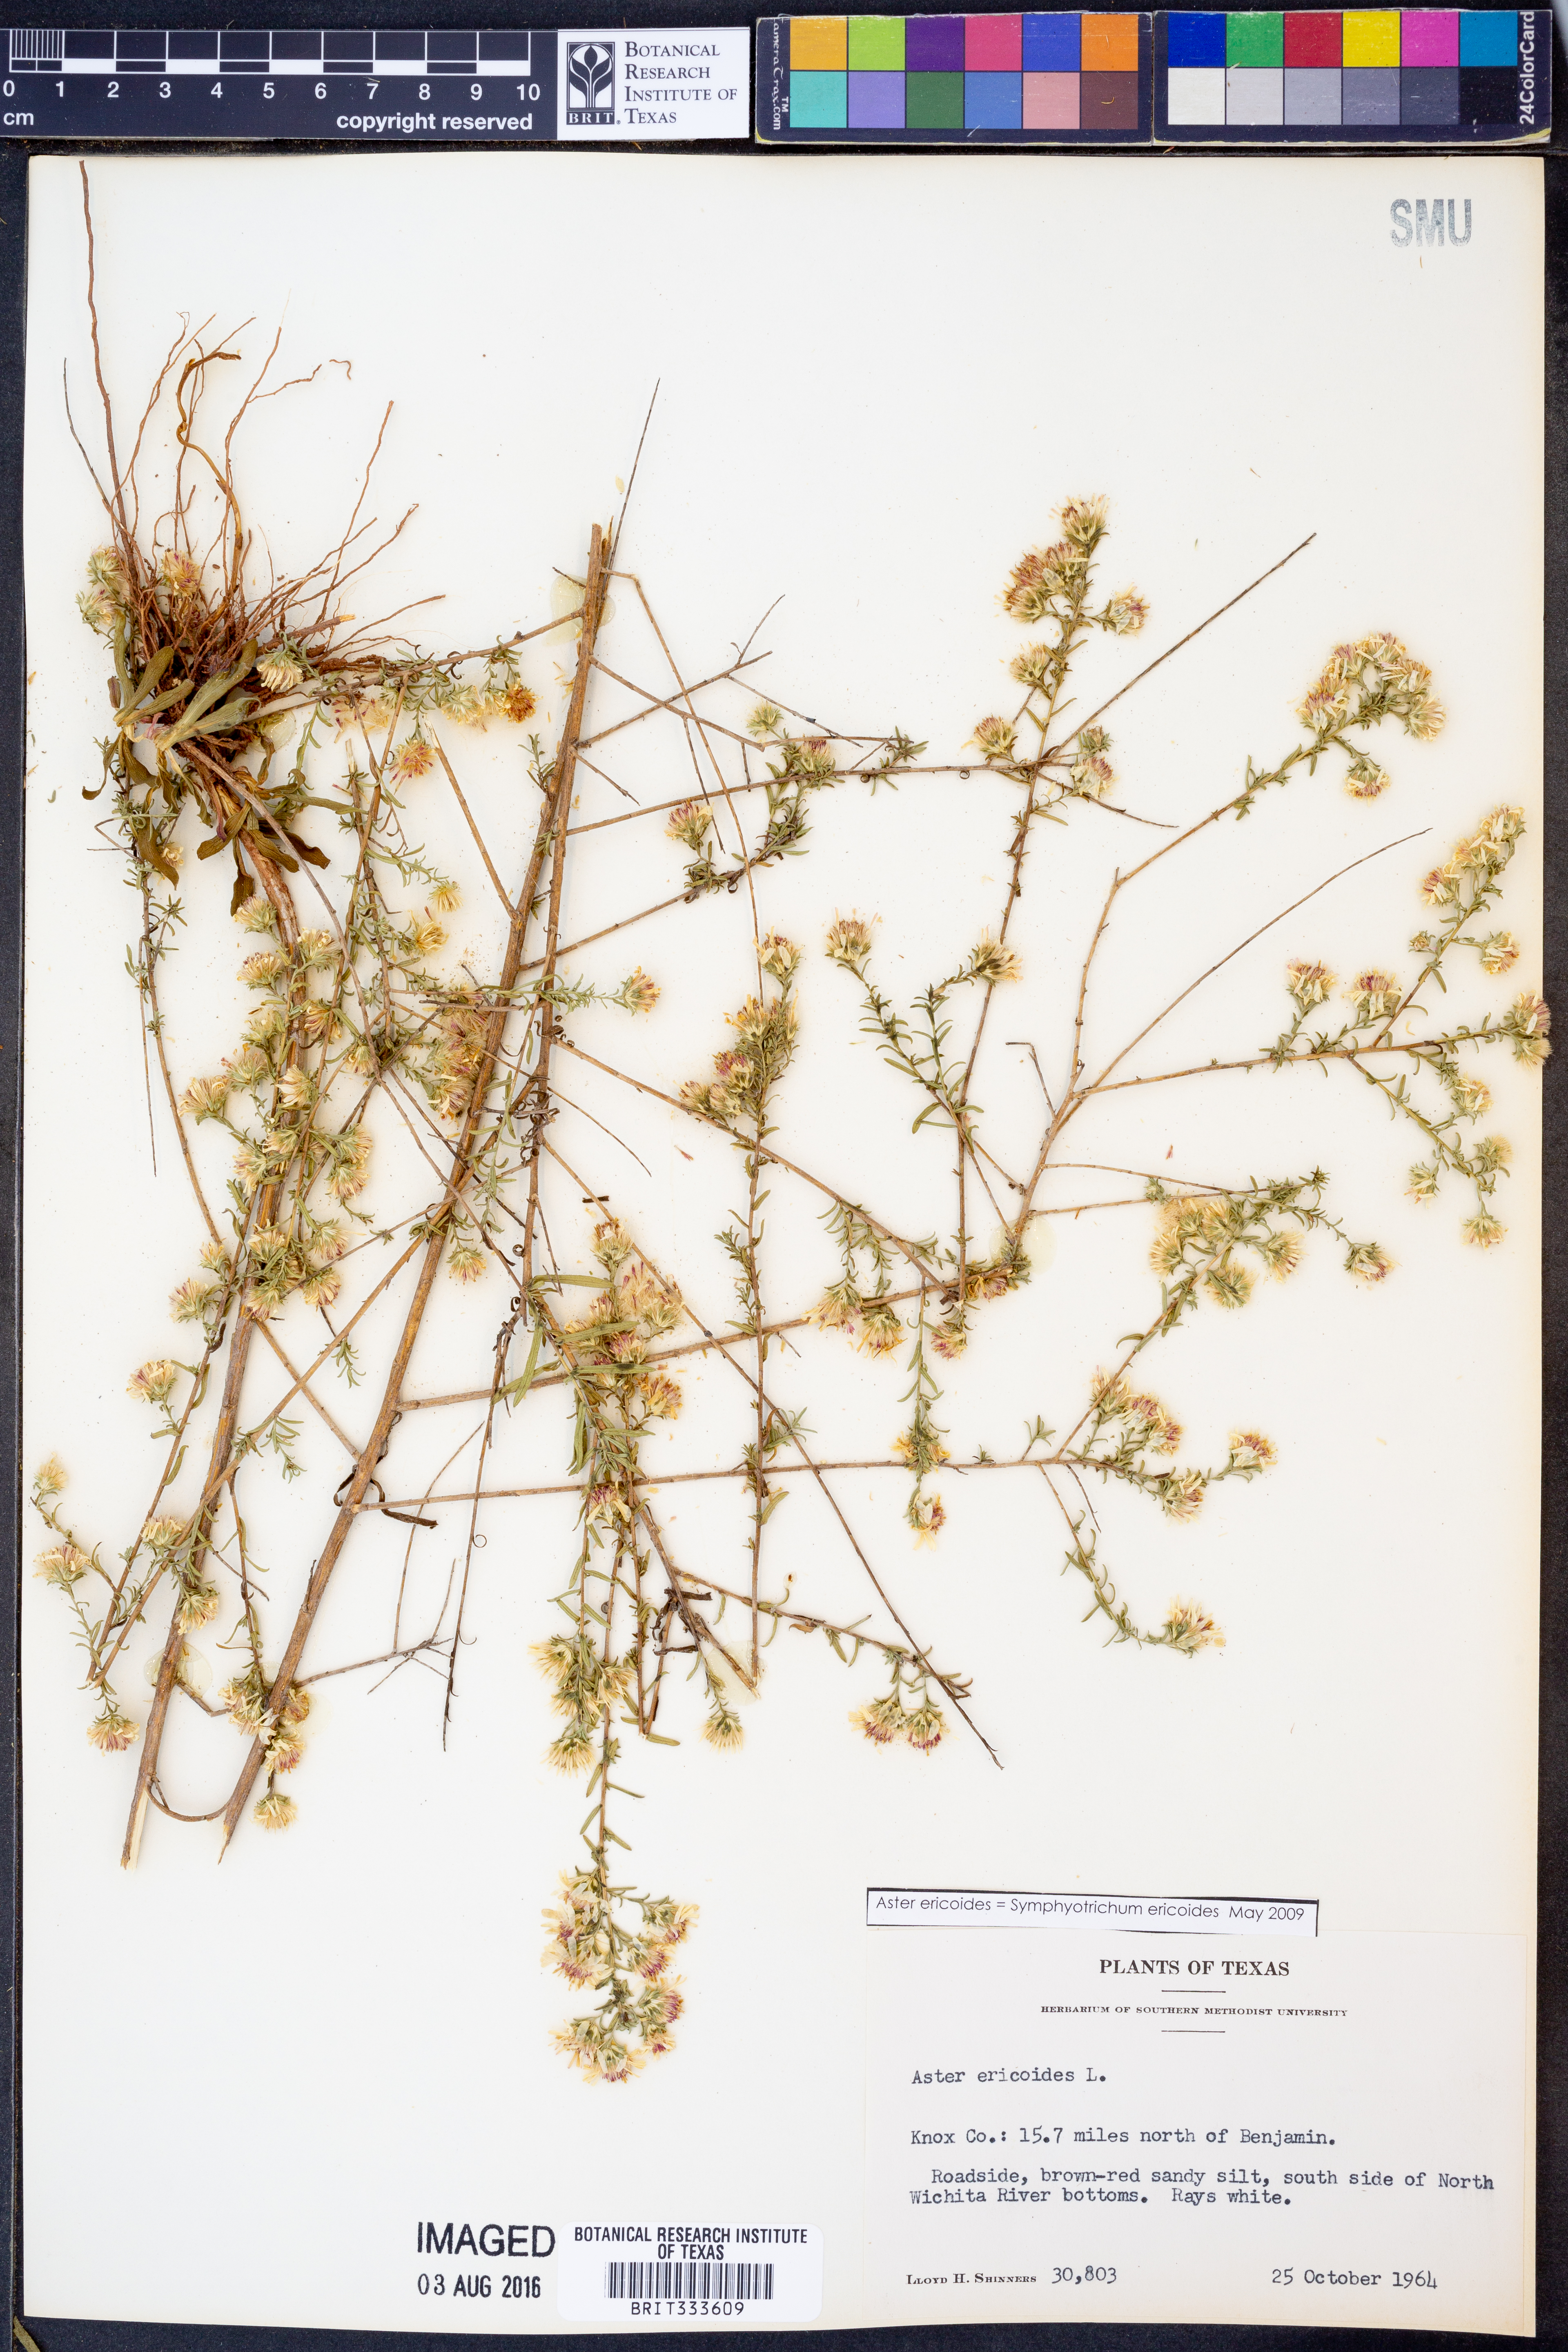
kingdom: Plantae
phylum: Tracheophyta
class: Magnoliopsida
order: Asterales
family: Asteraceae
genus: Symphyotrichum
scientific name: Symphyotrichum ericoides
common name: Heath aster
